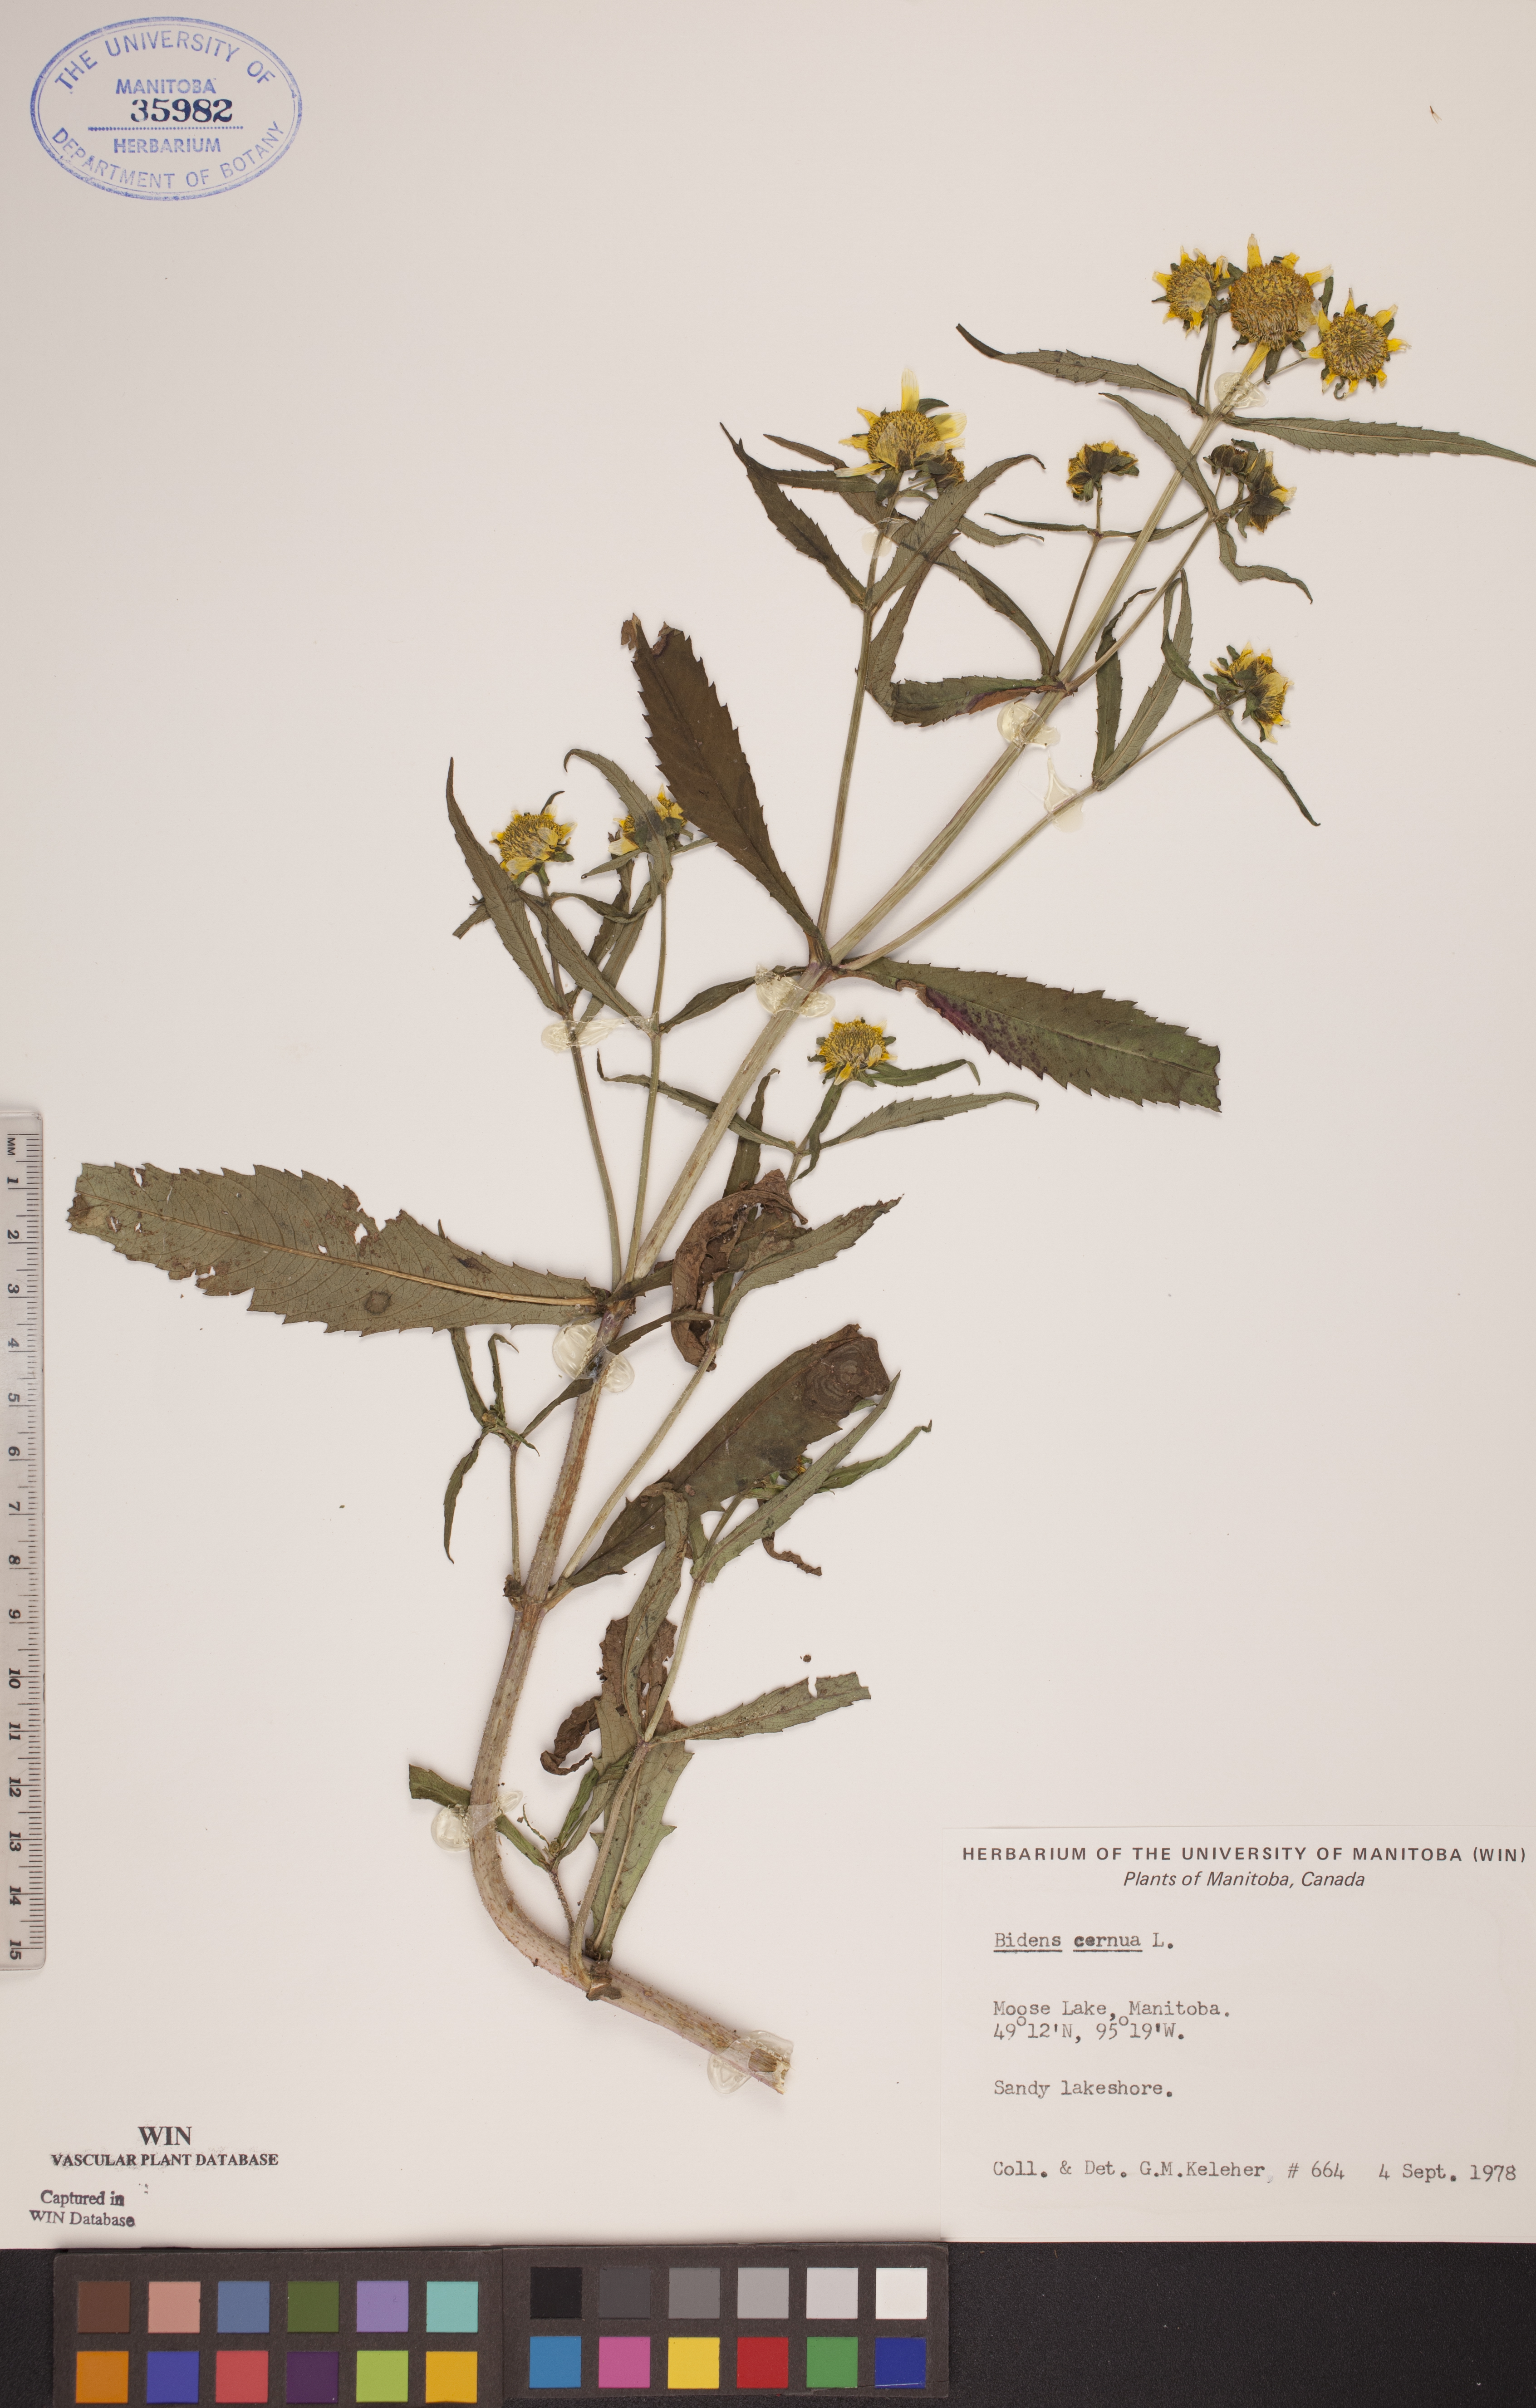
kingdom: Plantae
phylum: Tracheophyta
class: Magnoliopsida
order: Asterales
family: Asteraceae
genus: Bidens
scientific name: Bidens cernua
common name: Nodding bur-marigold
